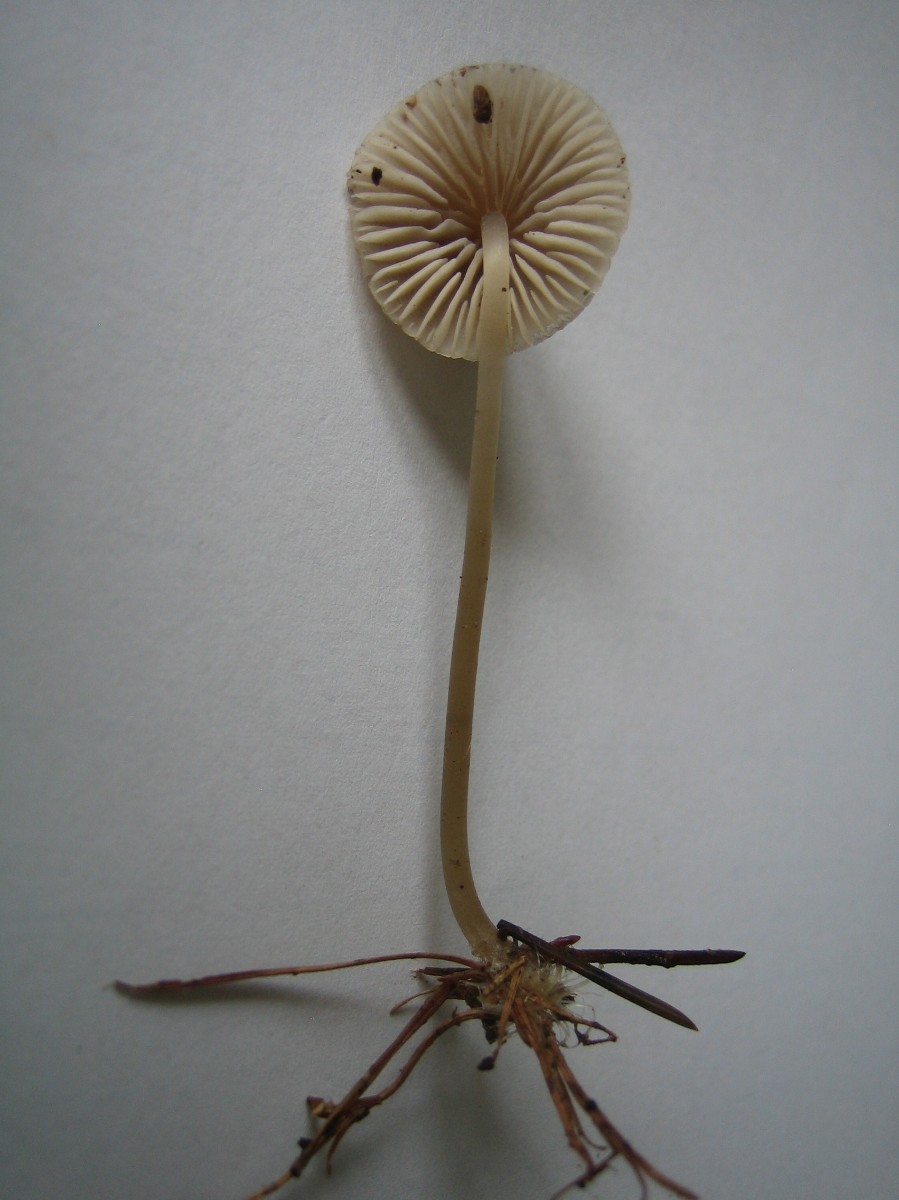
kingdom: Fungi
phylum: Basidiomycota
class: Agaricomycetes
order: Agaricales
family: Mycenaceae
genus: Mycena
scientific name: Mycena
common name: huesvamp
